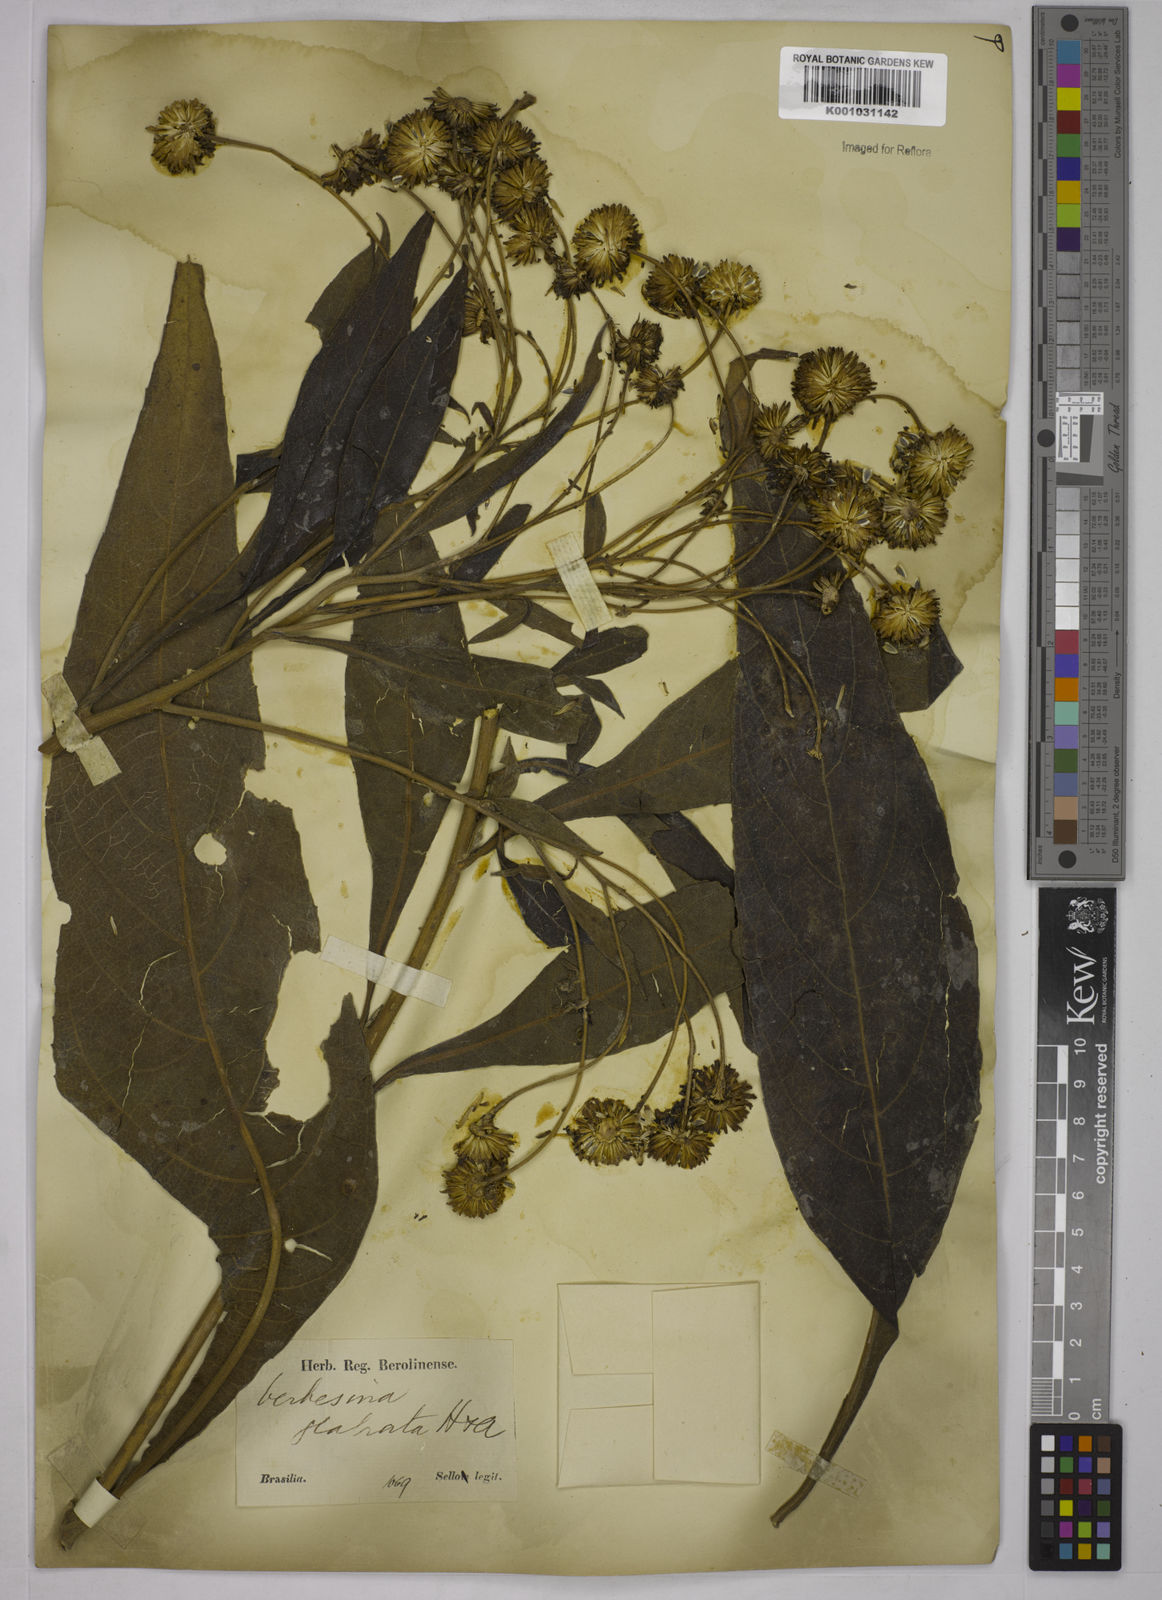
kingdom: Plantae
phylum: Tracheophyta
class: Magnoliopsida
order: Asterales
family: Asteraceae
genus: Verbesina
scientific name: Verbesina glabrata
